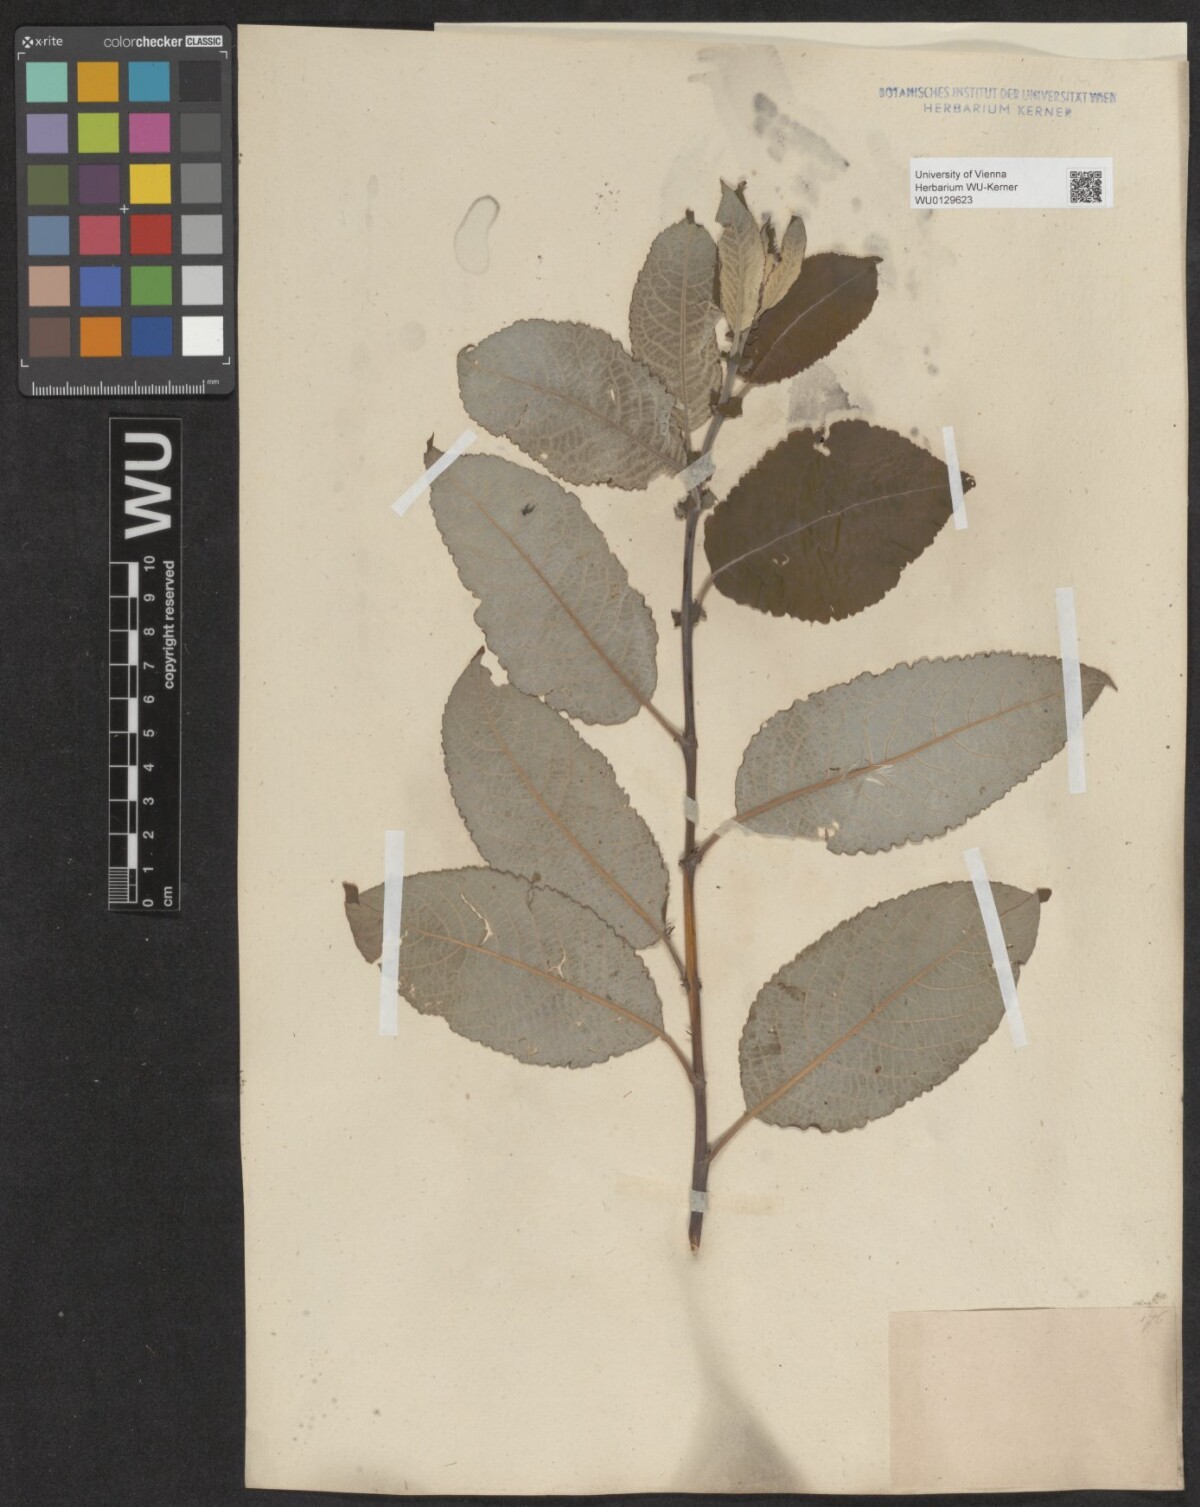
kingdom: Plantae
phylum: Tracheophyta
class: Magnoliopsida
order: Malpighiales
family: Salicaceae
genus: Salix
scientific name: Salix caprea
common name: Goat willow
